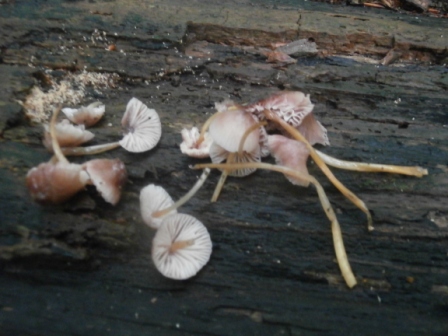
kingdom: Fungi
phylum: Basidiomycota
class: Agaricomycetes
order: Agaricales
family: Mycenaceae
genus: Mycena
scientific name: Mycena renati
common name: smuk huesvamp
